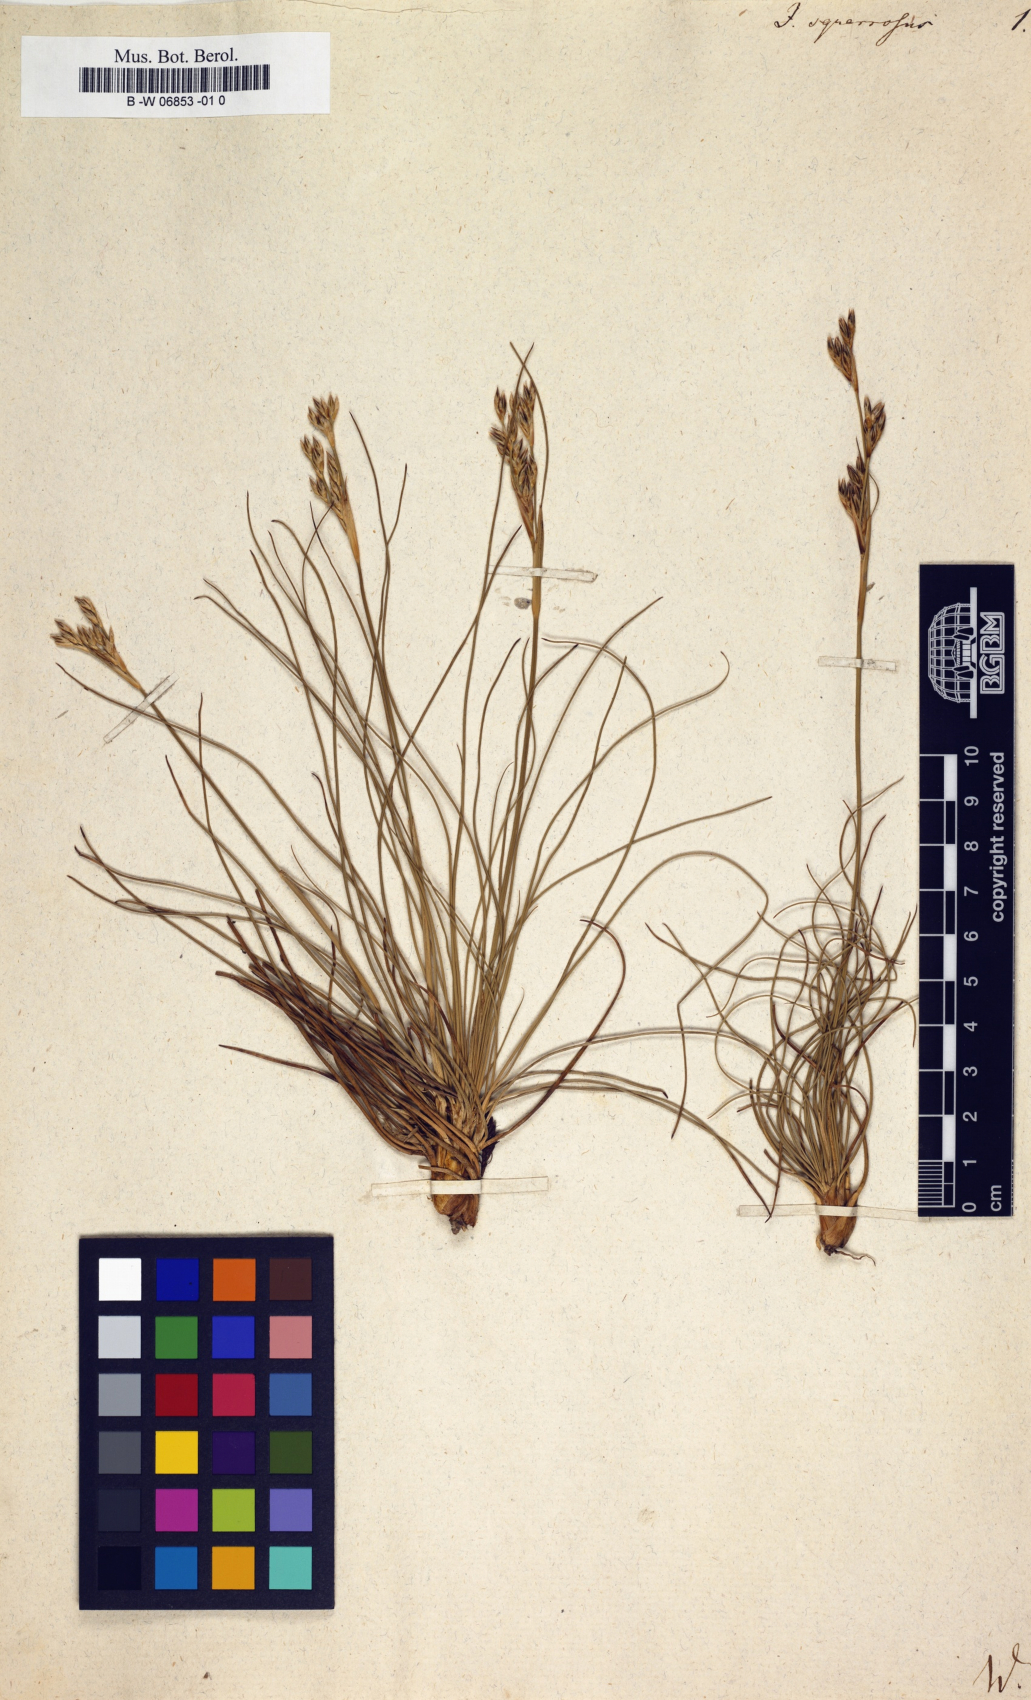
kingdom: Plantae
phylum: Tracheophyta
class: Liliopsida
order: Poales
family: Juncaceae
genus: Juncus
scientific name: Juncus squarrosus
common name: Heath rush
